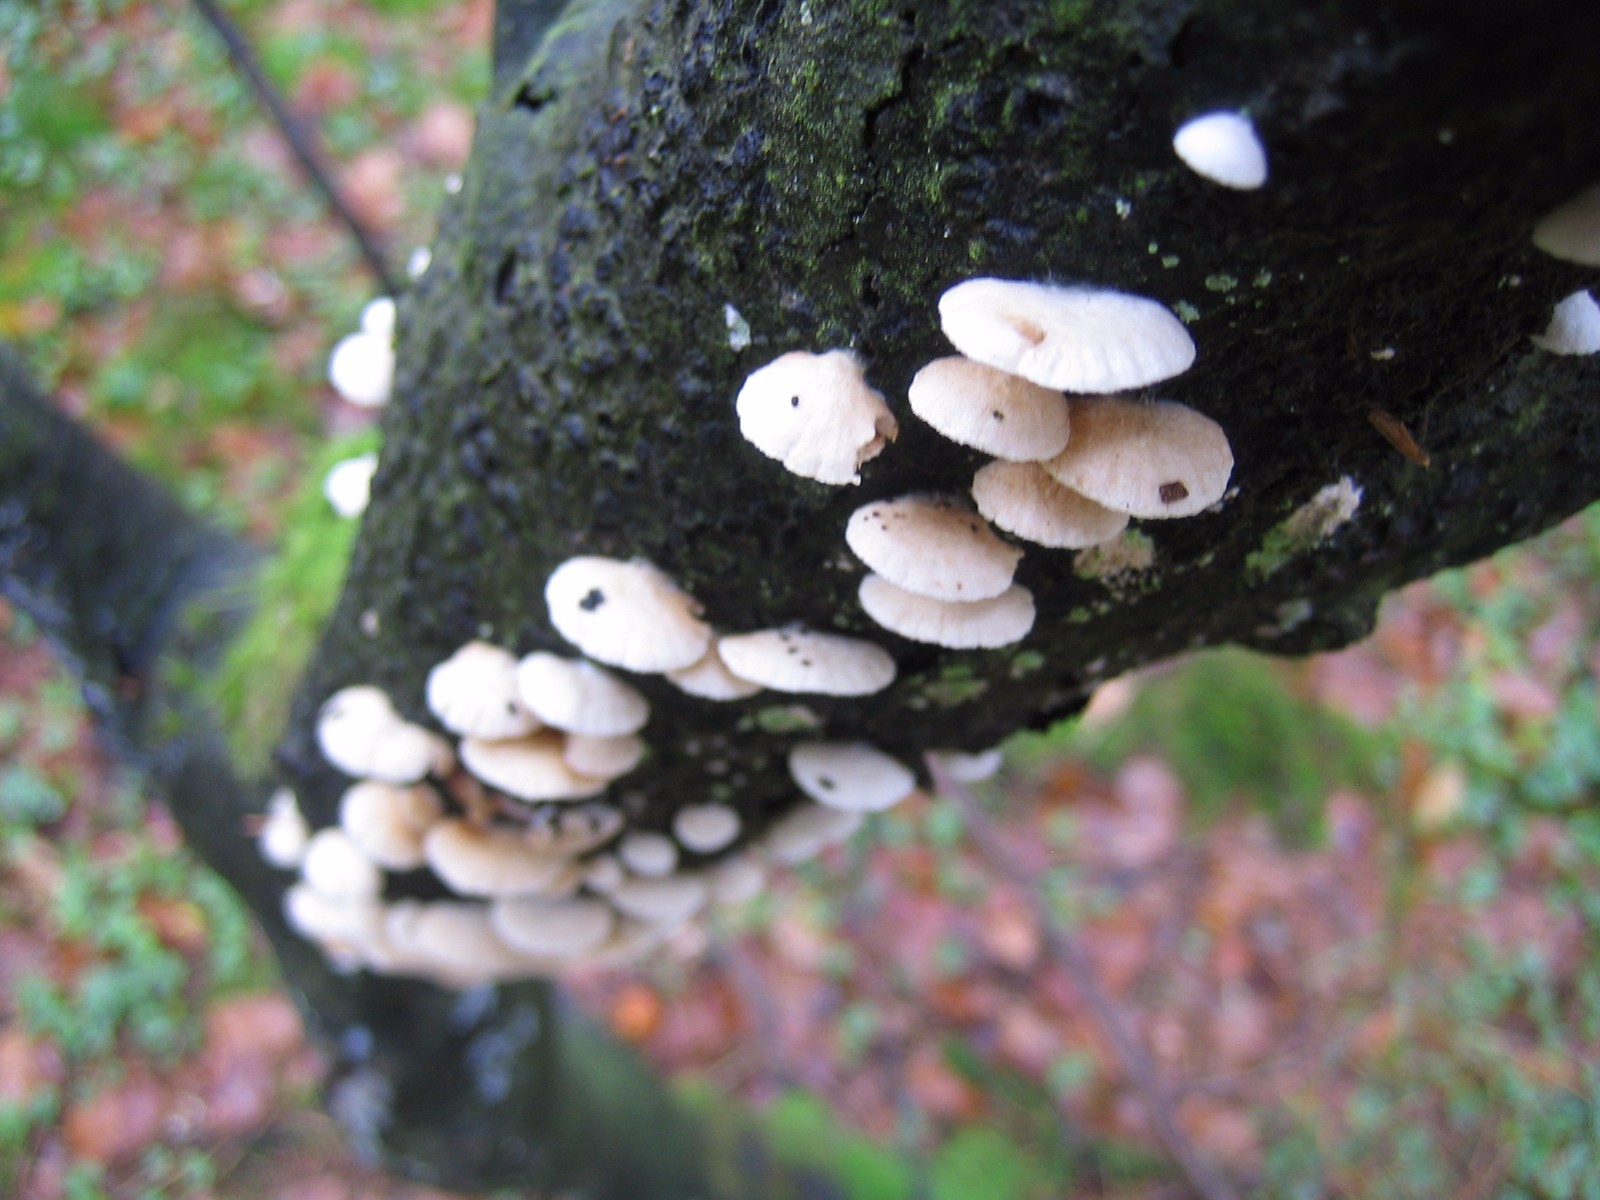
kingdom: Fungi
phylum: Basidiomycota
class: Agaricomycetes
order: Agaricales
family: Crepidotaceae
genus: Crepidotus
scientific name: Crepidotus
